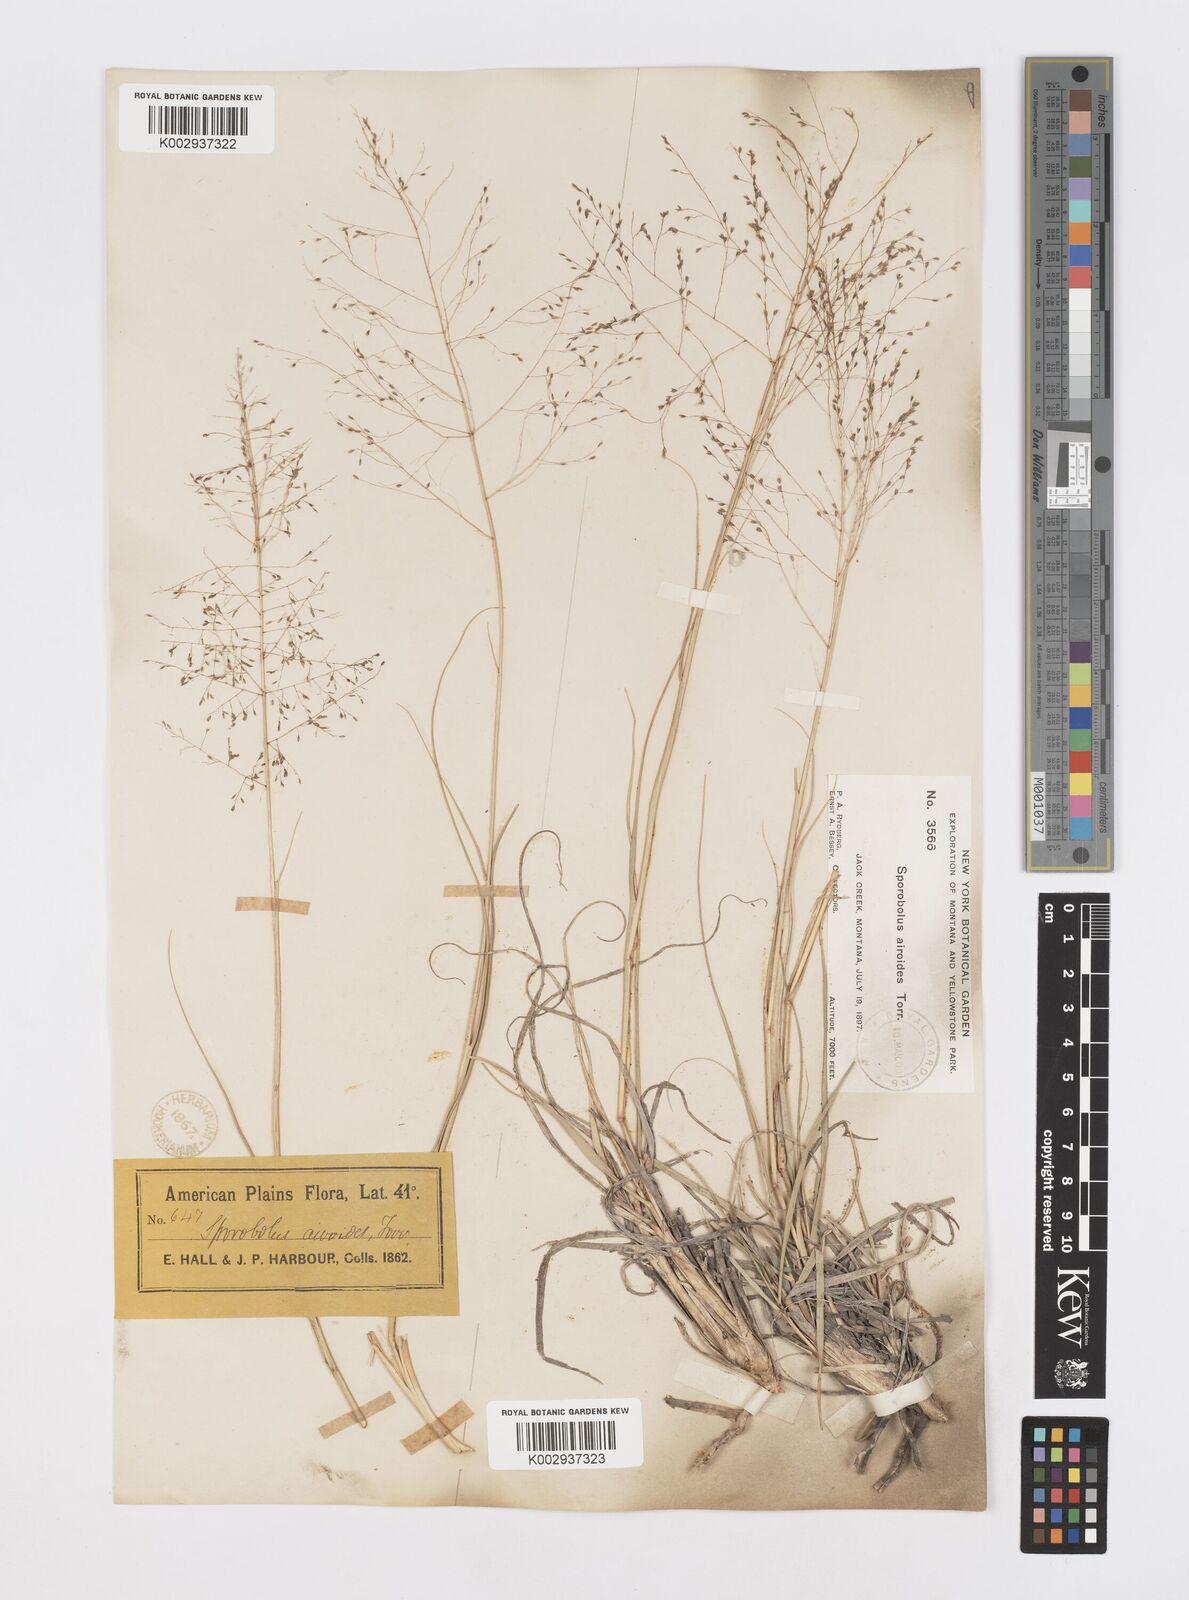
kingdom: Plantae
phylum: Tracheophyta
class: Liliopsida
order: Poales
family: Poaceae
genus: Sporobolus
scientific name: Sporobolus airoides
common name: Alkali sacaton
